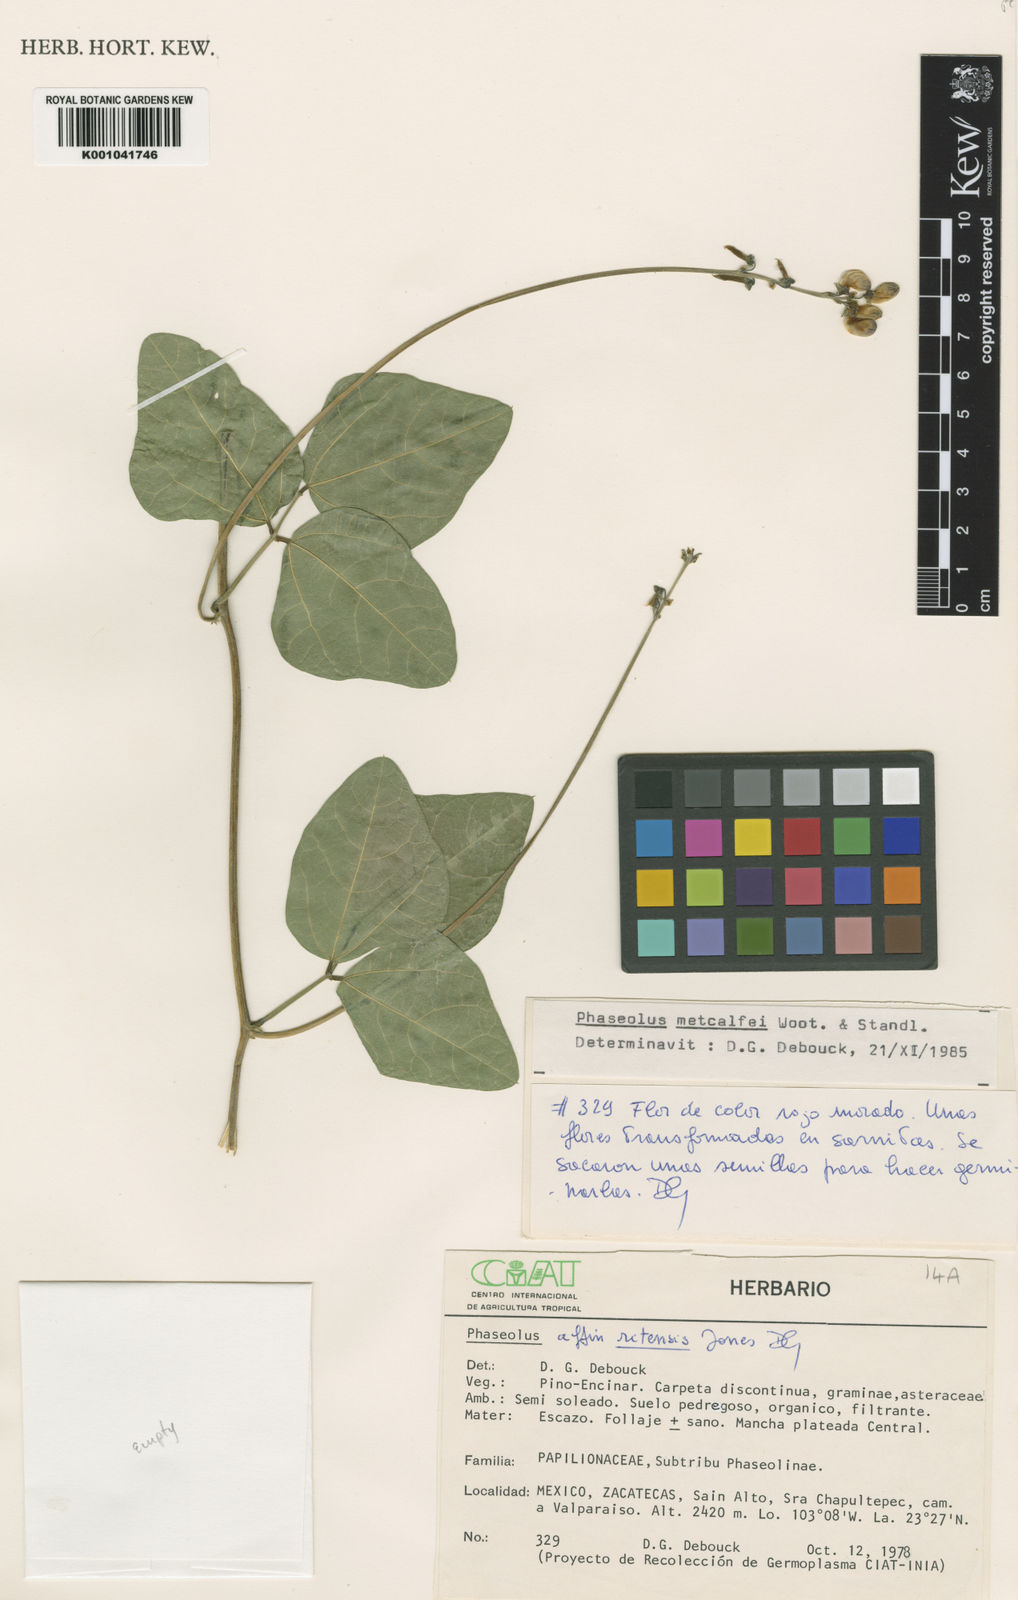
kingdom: Plantae
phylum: Tracheophyta
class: Magnoliopsida
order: Fabales
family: Fabaceae
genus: Phaseolus
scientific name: Phaseolus
